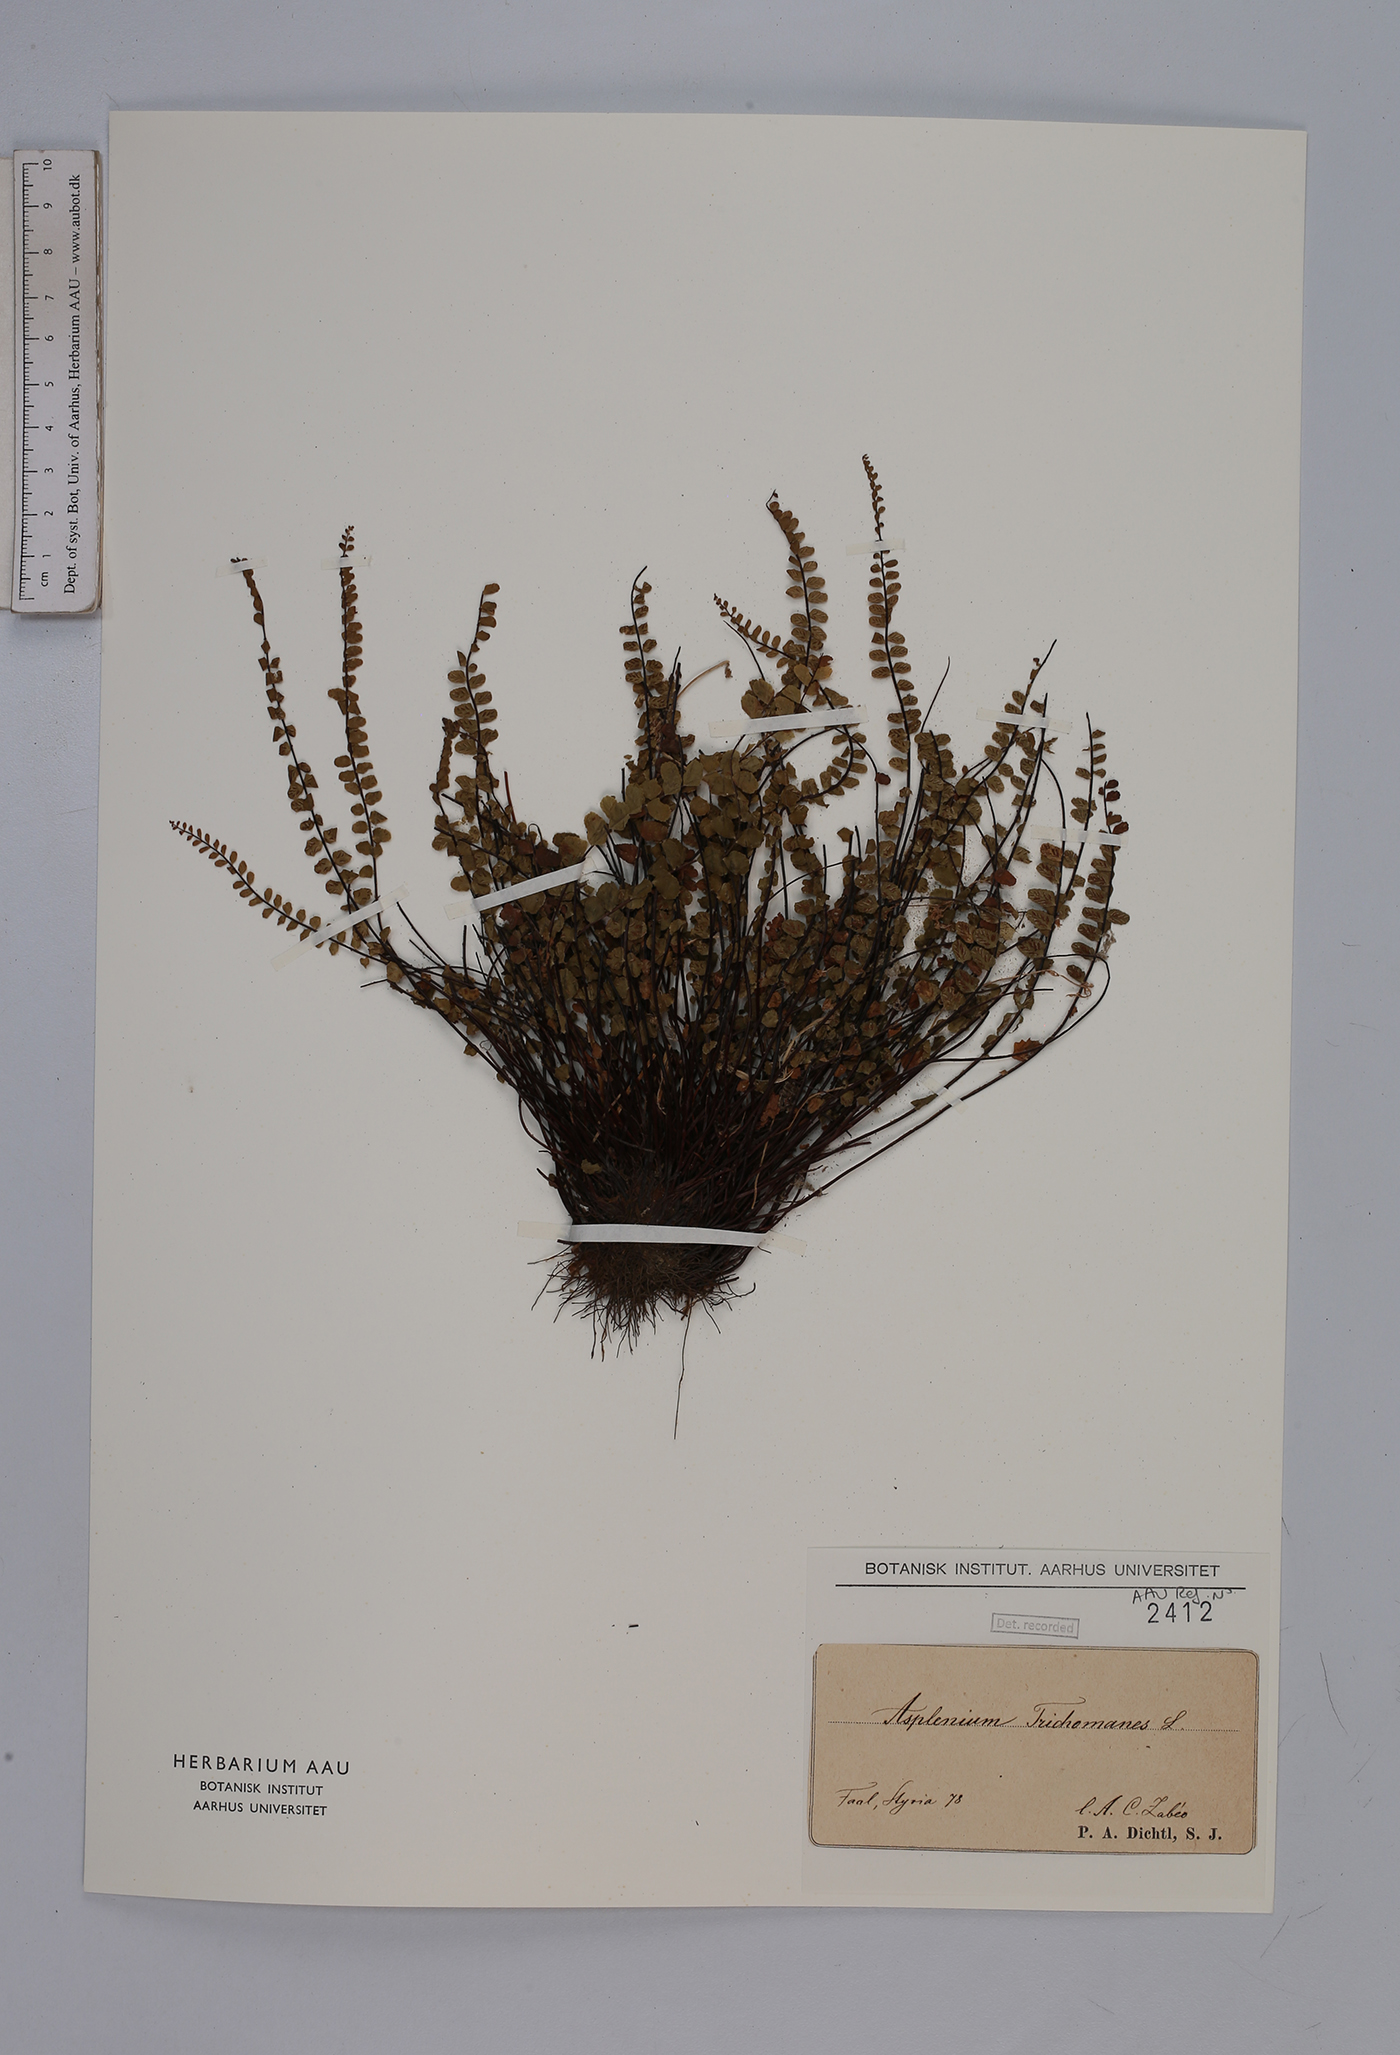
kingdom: Plantae
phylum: Tracheophyta
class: Polypodiopsida
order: Polypodiales
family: Aspleniaceae
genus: Asplenium
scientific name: Asplenium trichomanes
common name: Maidenhair spleenwort
